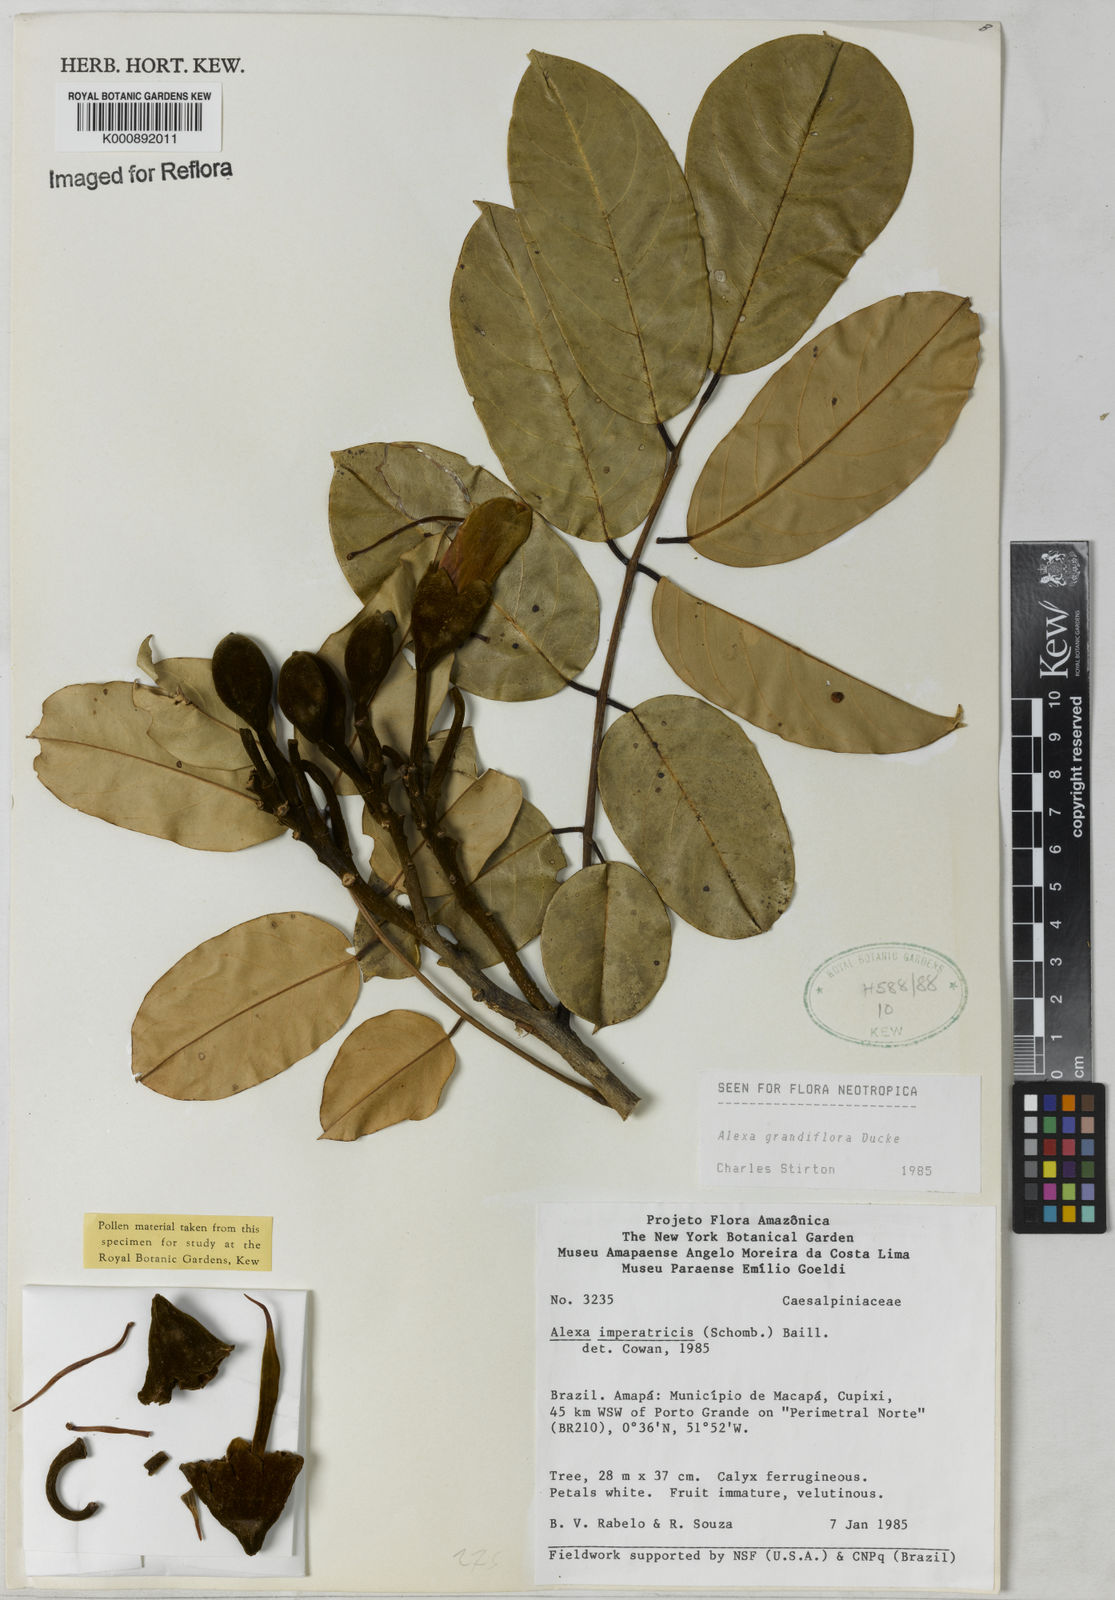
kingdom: Plantae
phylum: Tracheophyta
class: Magnoliopsida
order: Fabales
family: Fabaceae
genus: Alexa
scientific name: Alexa grandiflora
